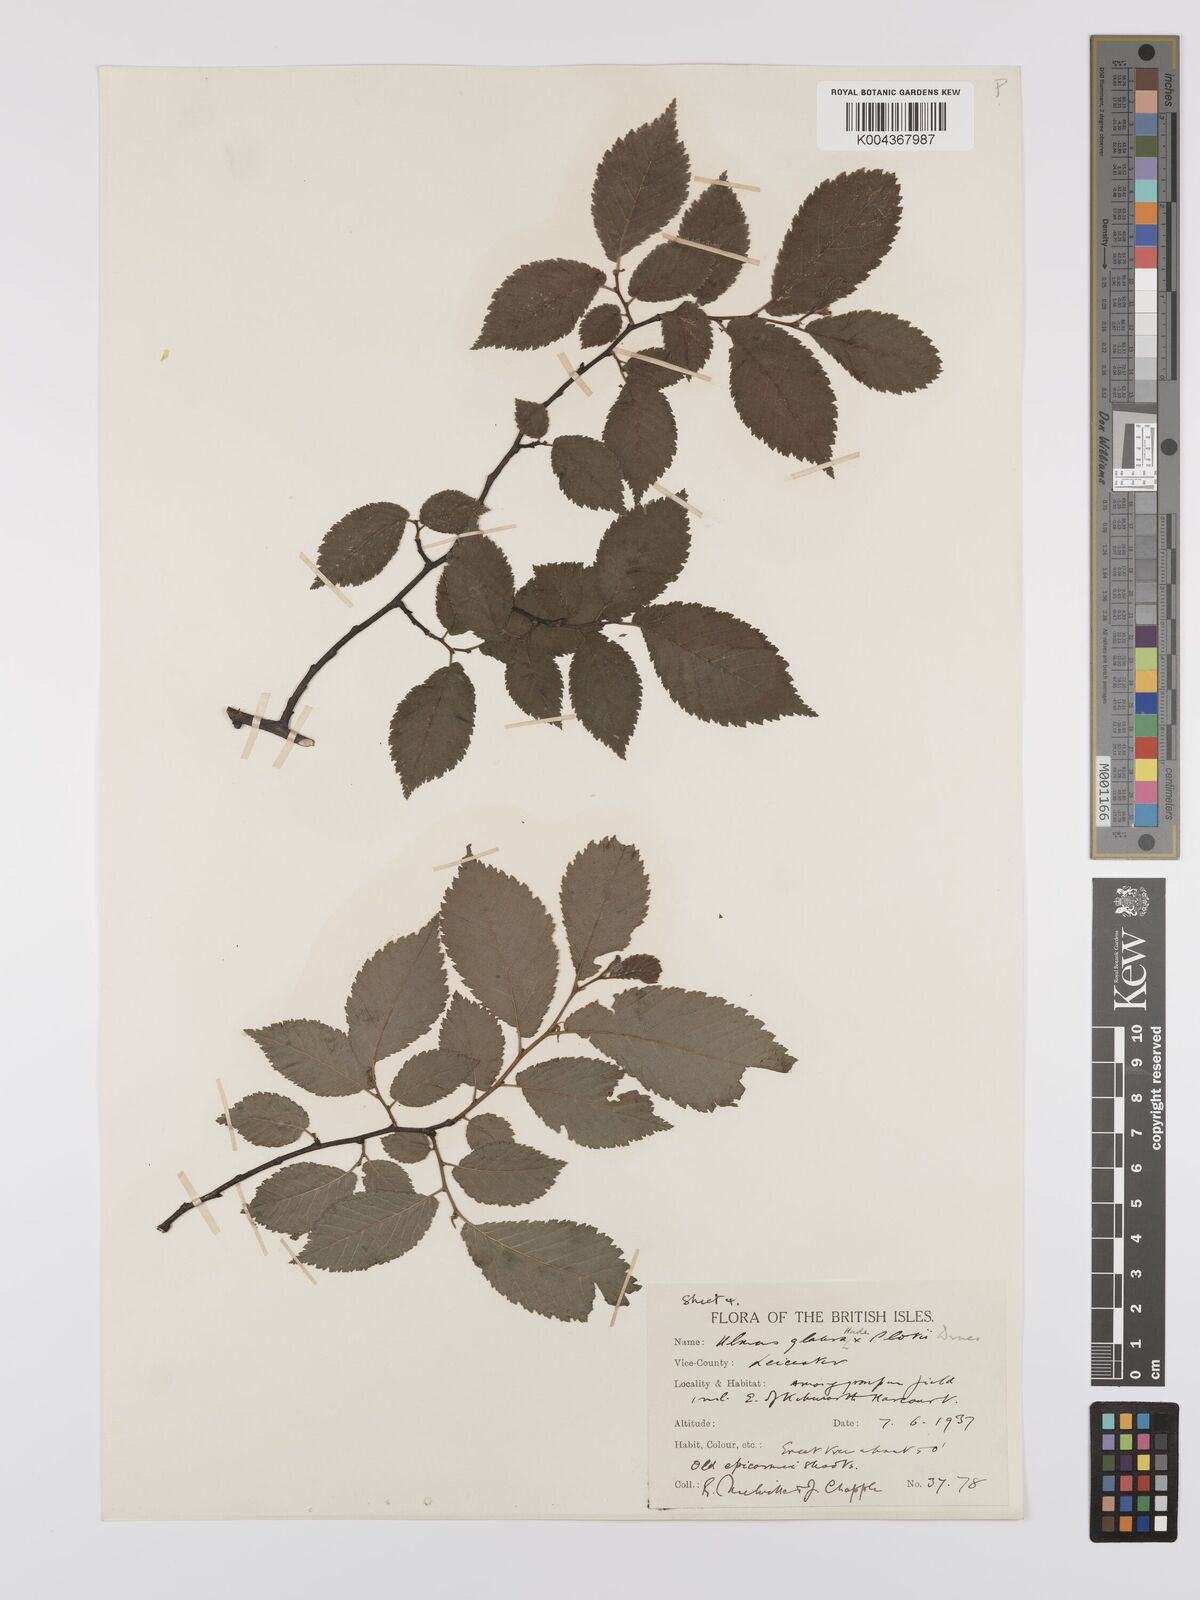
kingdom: Plantae
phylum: Tracheophyta
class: Magnoliopsida
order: Rosales
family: Ulmaceae
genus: Ulmus
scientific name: Ulmus
